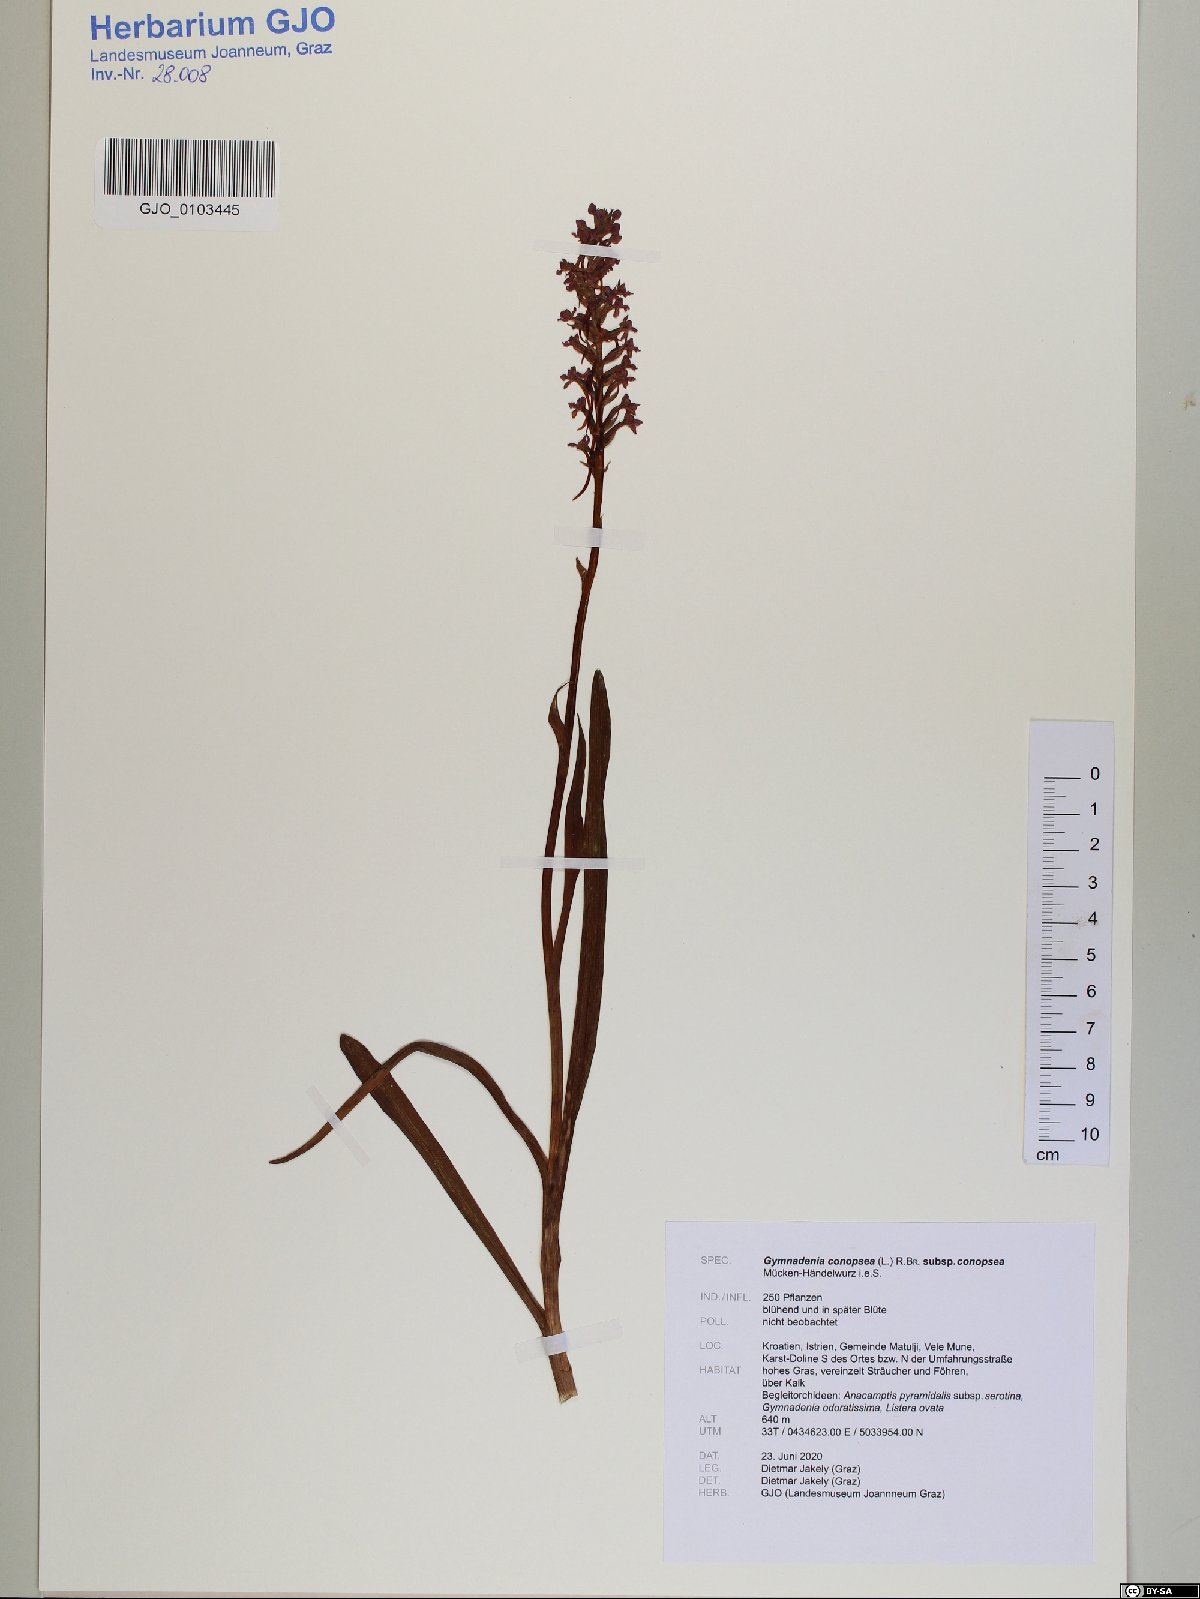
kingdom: Plantae
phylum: Tracheophyta
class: Liliopsida
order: Asparagales
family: Orchidaceae
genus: Gymnadenia
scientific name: Gymnadenia conopsea
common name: Fragrant orchid
